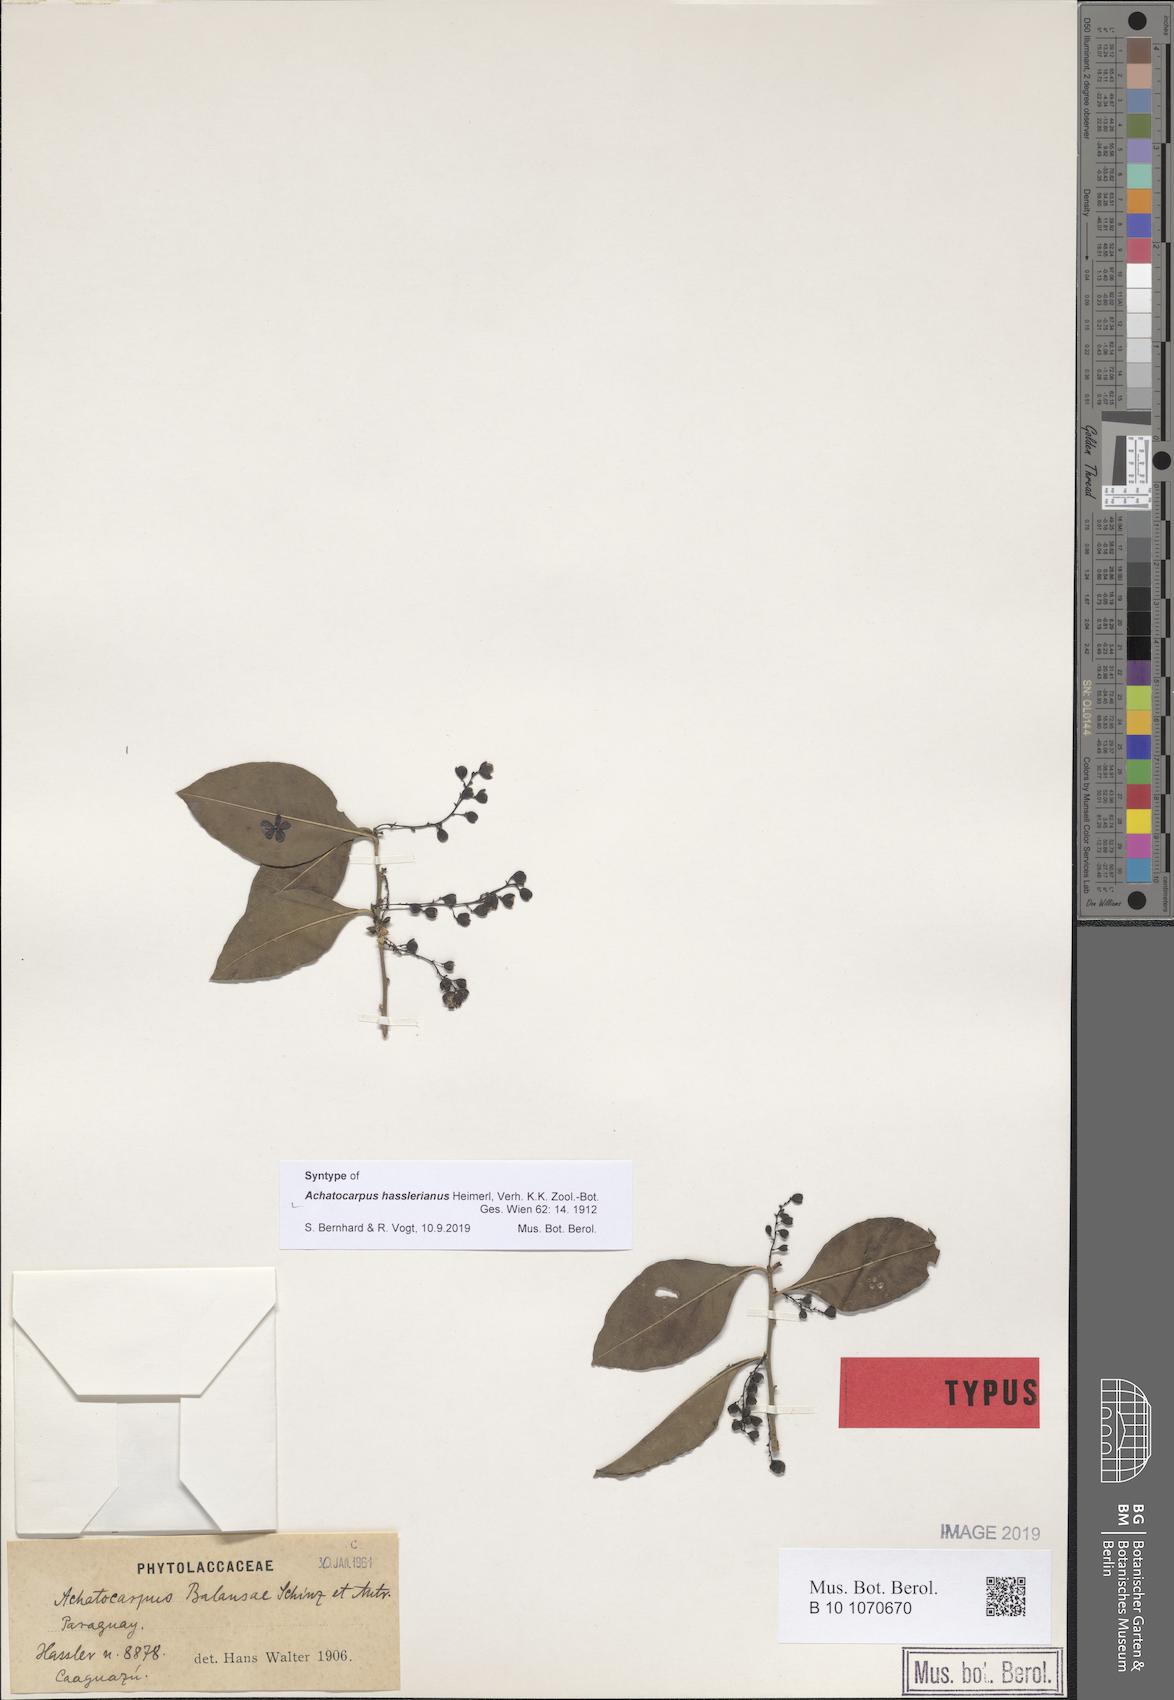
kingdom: Plantae
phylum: Tracheophyta
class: Magnoliopsida
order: Caryophyllales
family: Achatocarpaceae
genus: Achatocarpus
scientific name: Achatocarpus hasslerianus
